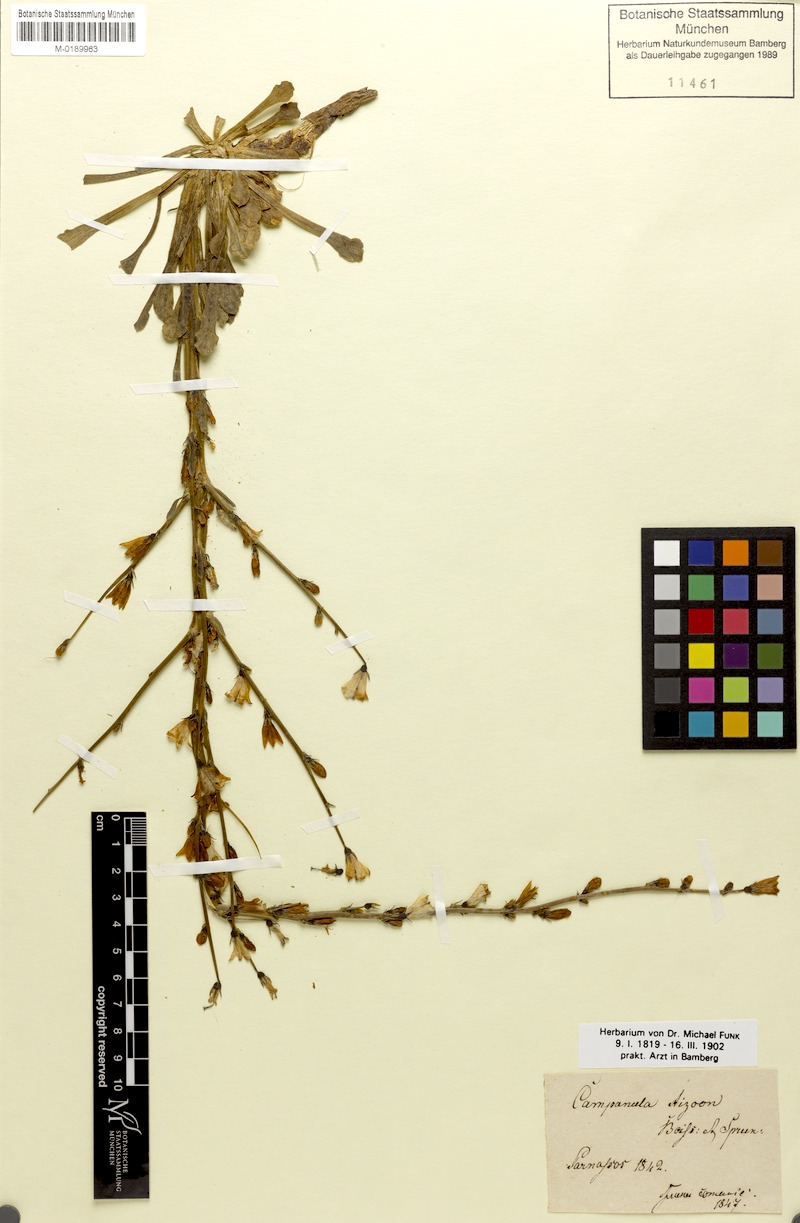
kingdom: Plantae
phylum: Tracheophyta
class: Magnoliopsida
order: Asterales
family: Campanulaceae
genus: Campanula
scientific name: Campanula aizoon
